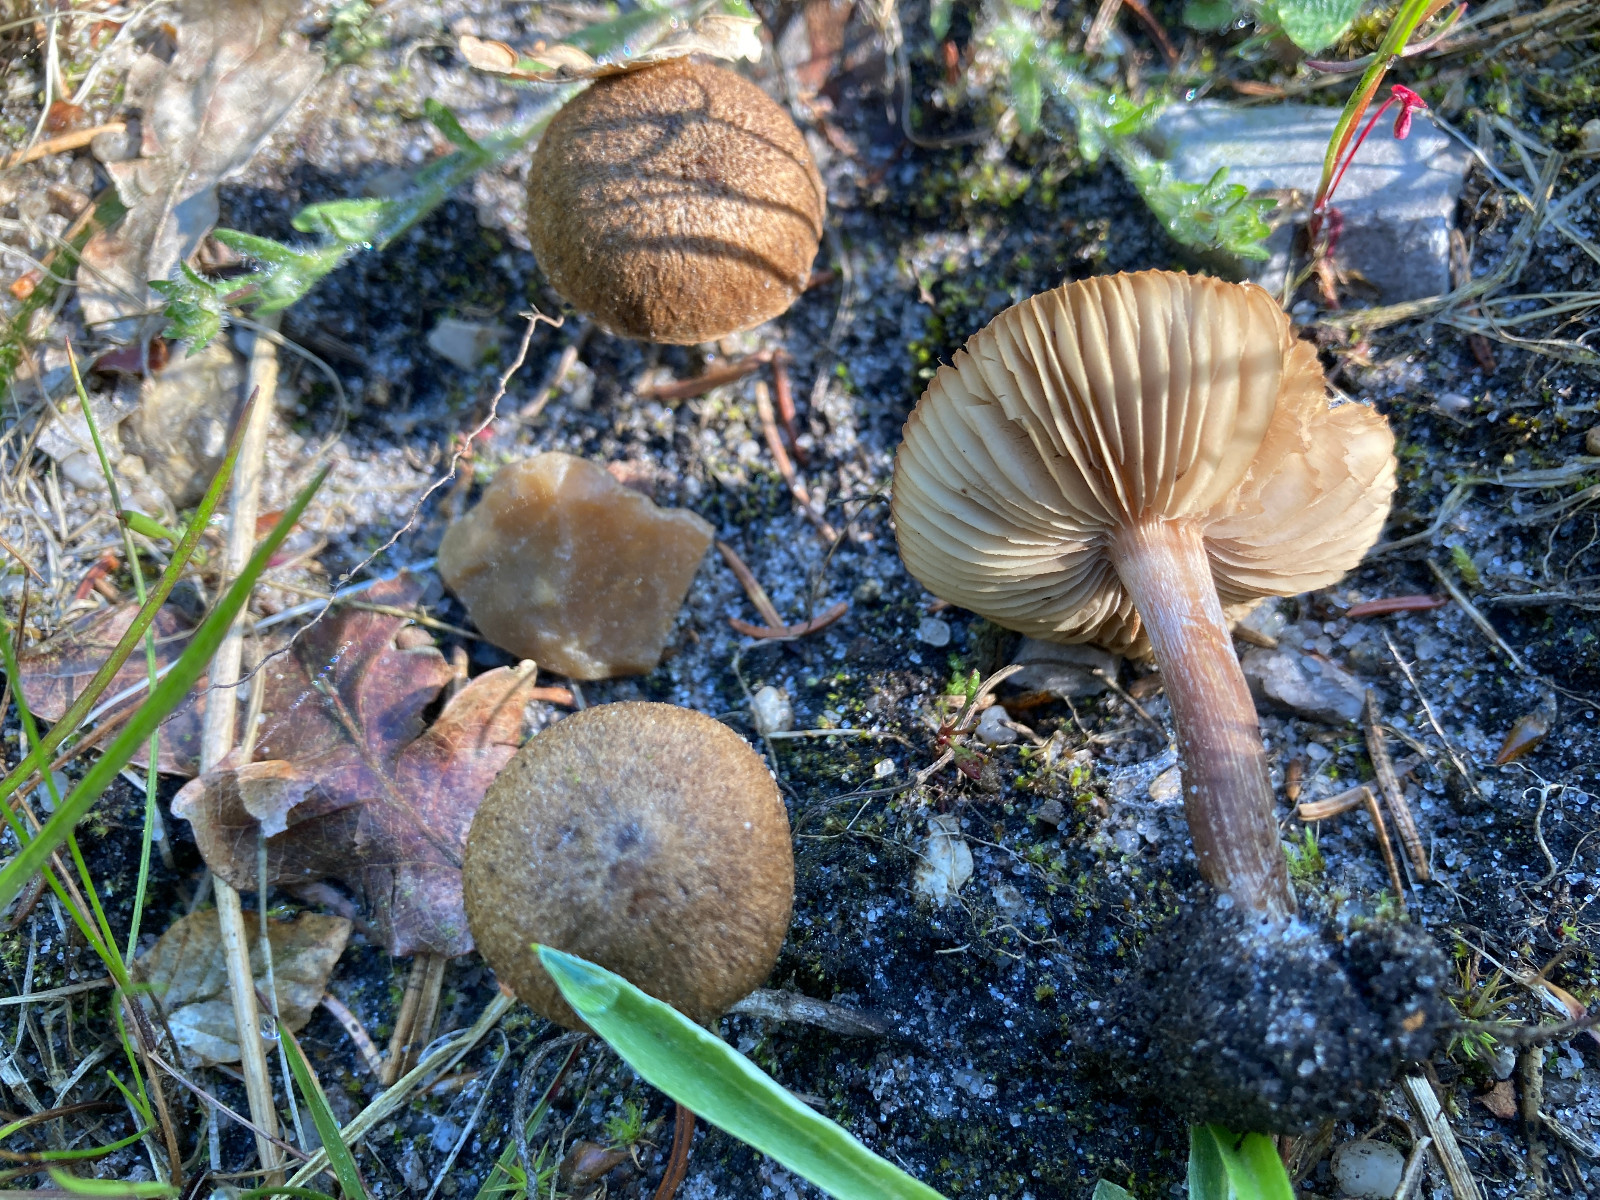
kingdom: Fungi
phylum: Basidiomycota
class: Agaricomycetes
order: Agaricales
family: Inocybaceae
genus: Inocybe
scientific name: Inocybe
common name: trævlhat
